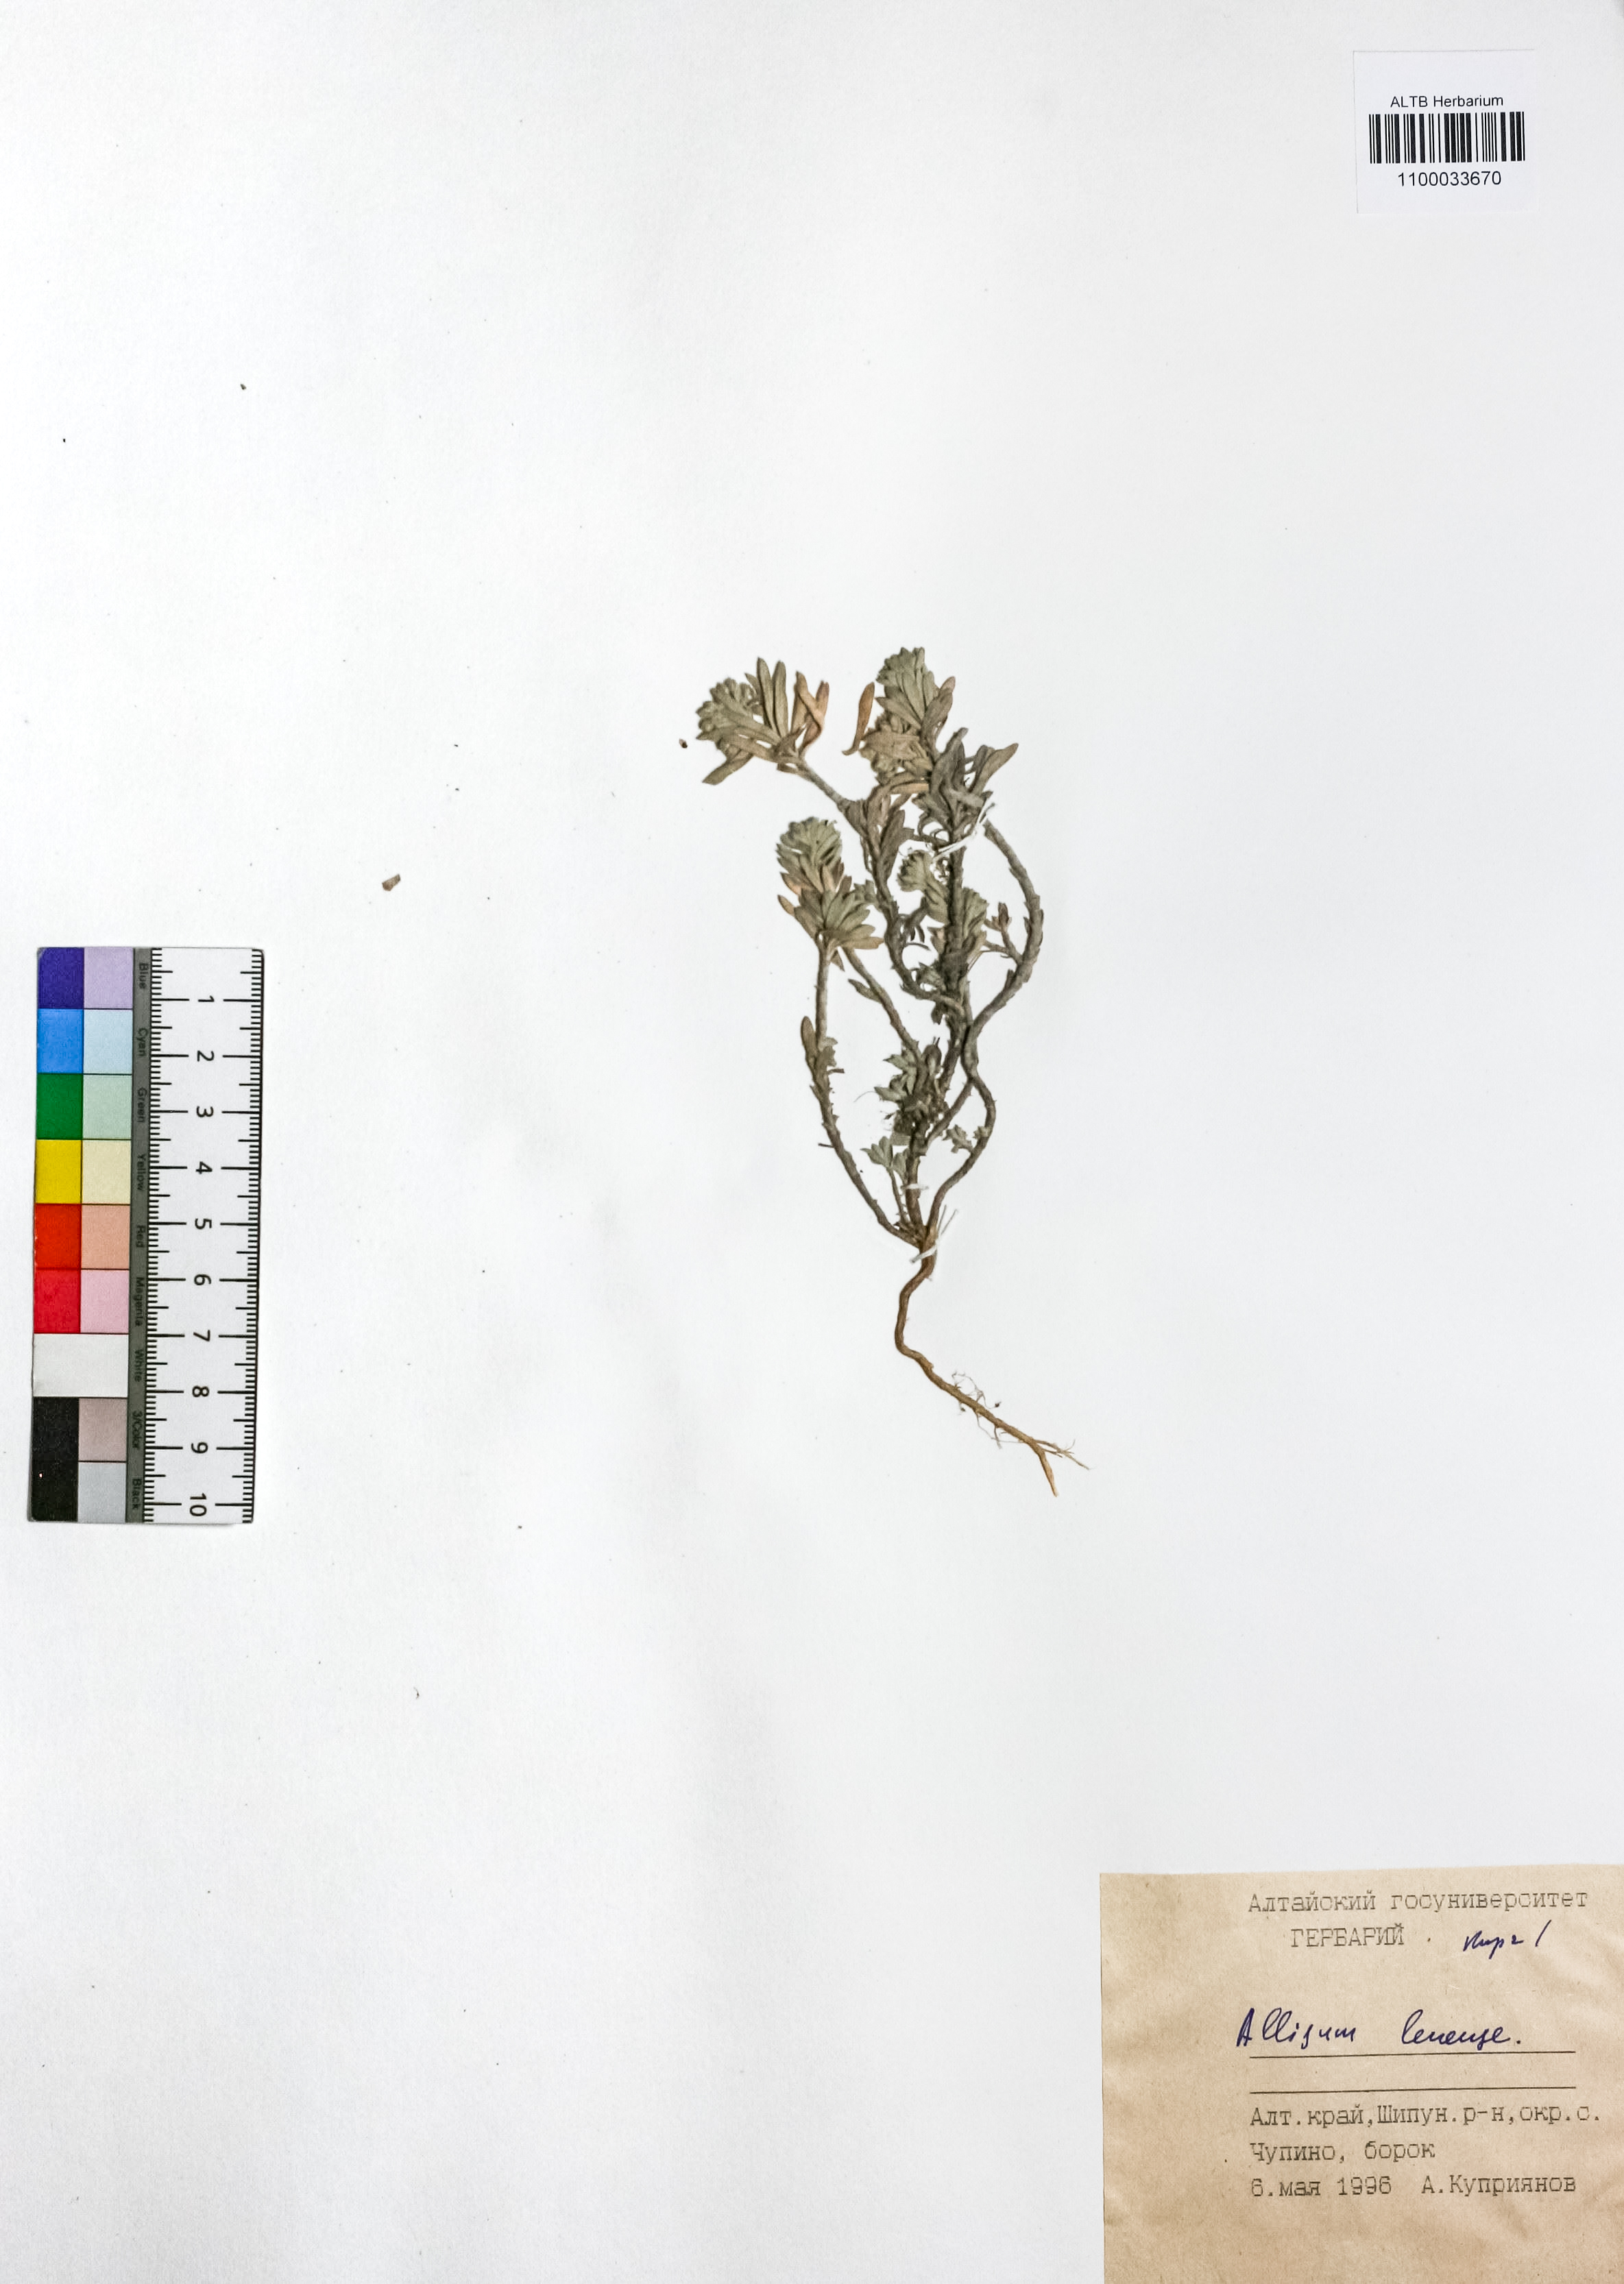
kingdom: Plantae
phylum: Tracheophyta
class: Magnoliopsida
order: Brassicales
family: Brassicaceae
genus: Alyssum
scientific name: Alyssum lenense
